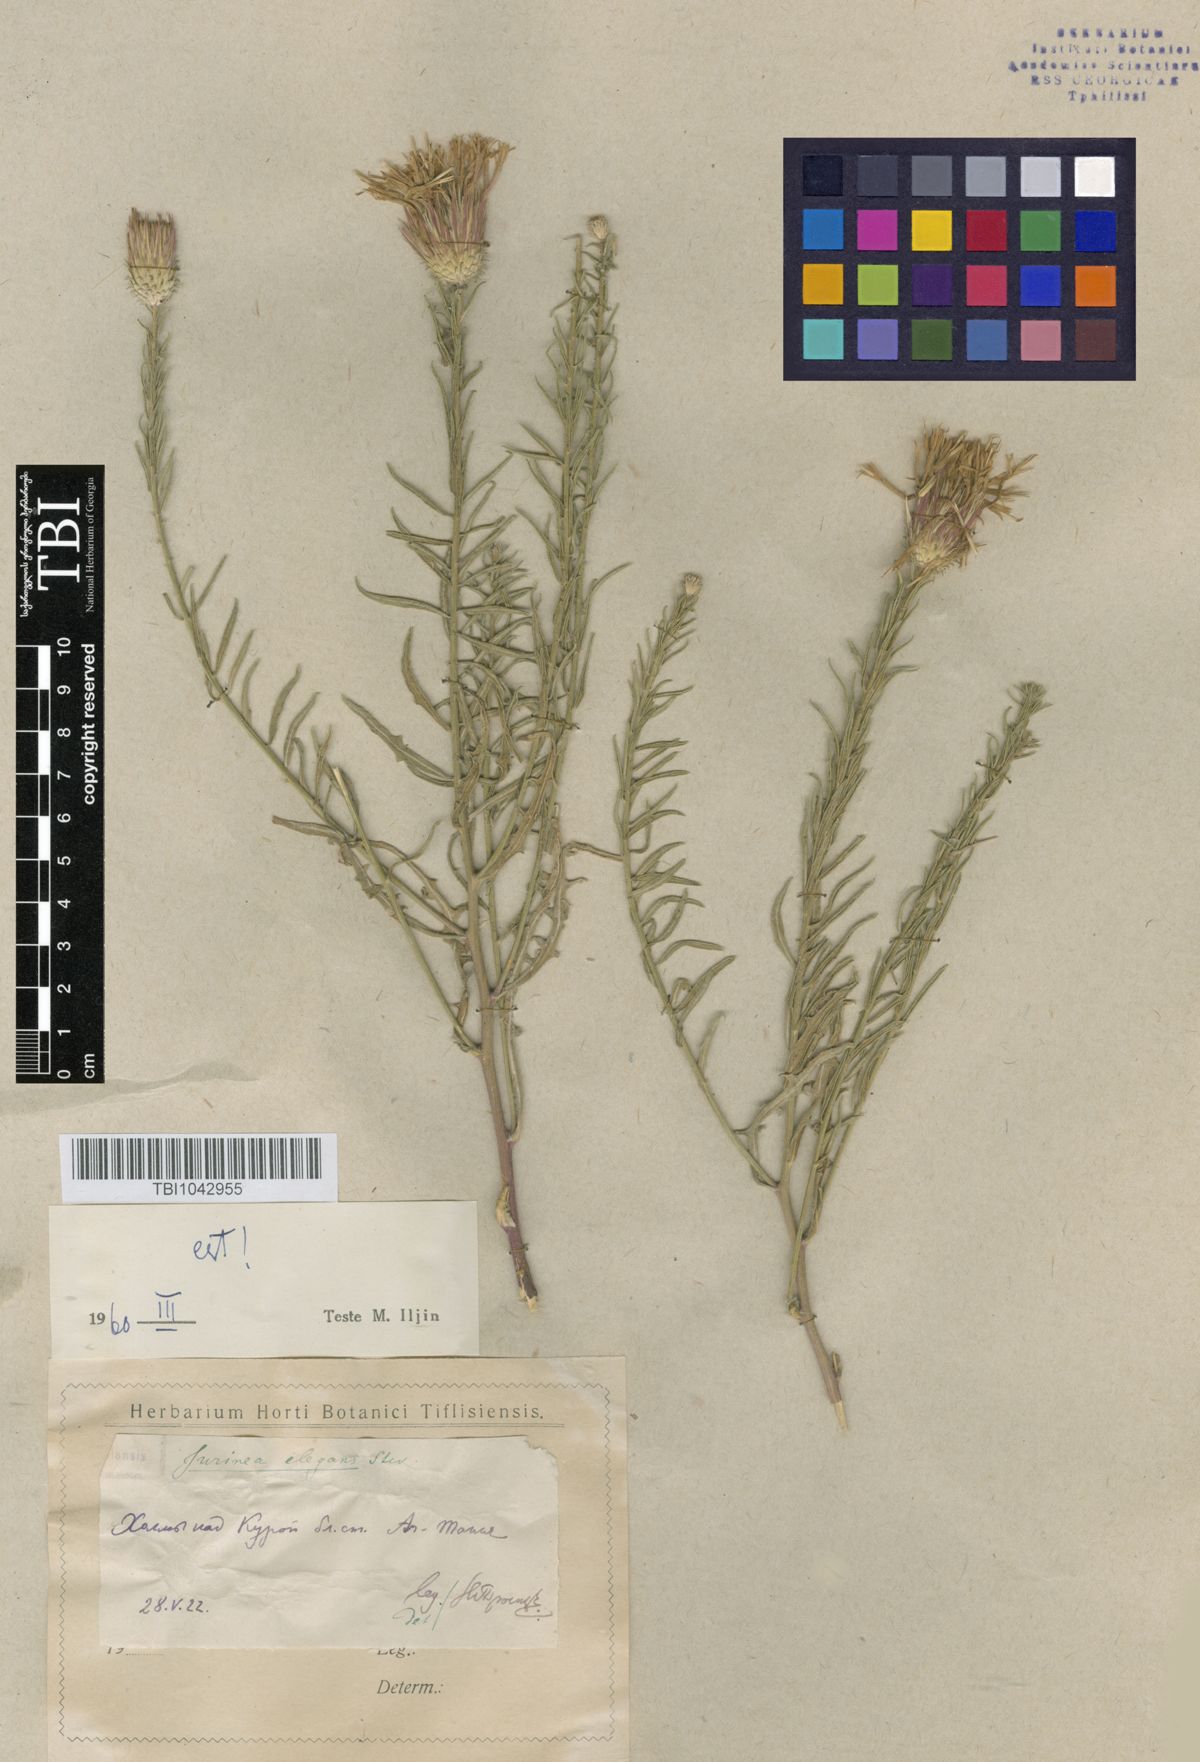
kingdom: Plantae
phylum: Tracheophyta
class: Magnoliopsida
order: Asterales
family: Asteraceae
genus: Jurinea
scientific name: Jurinea elegans
